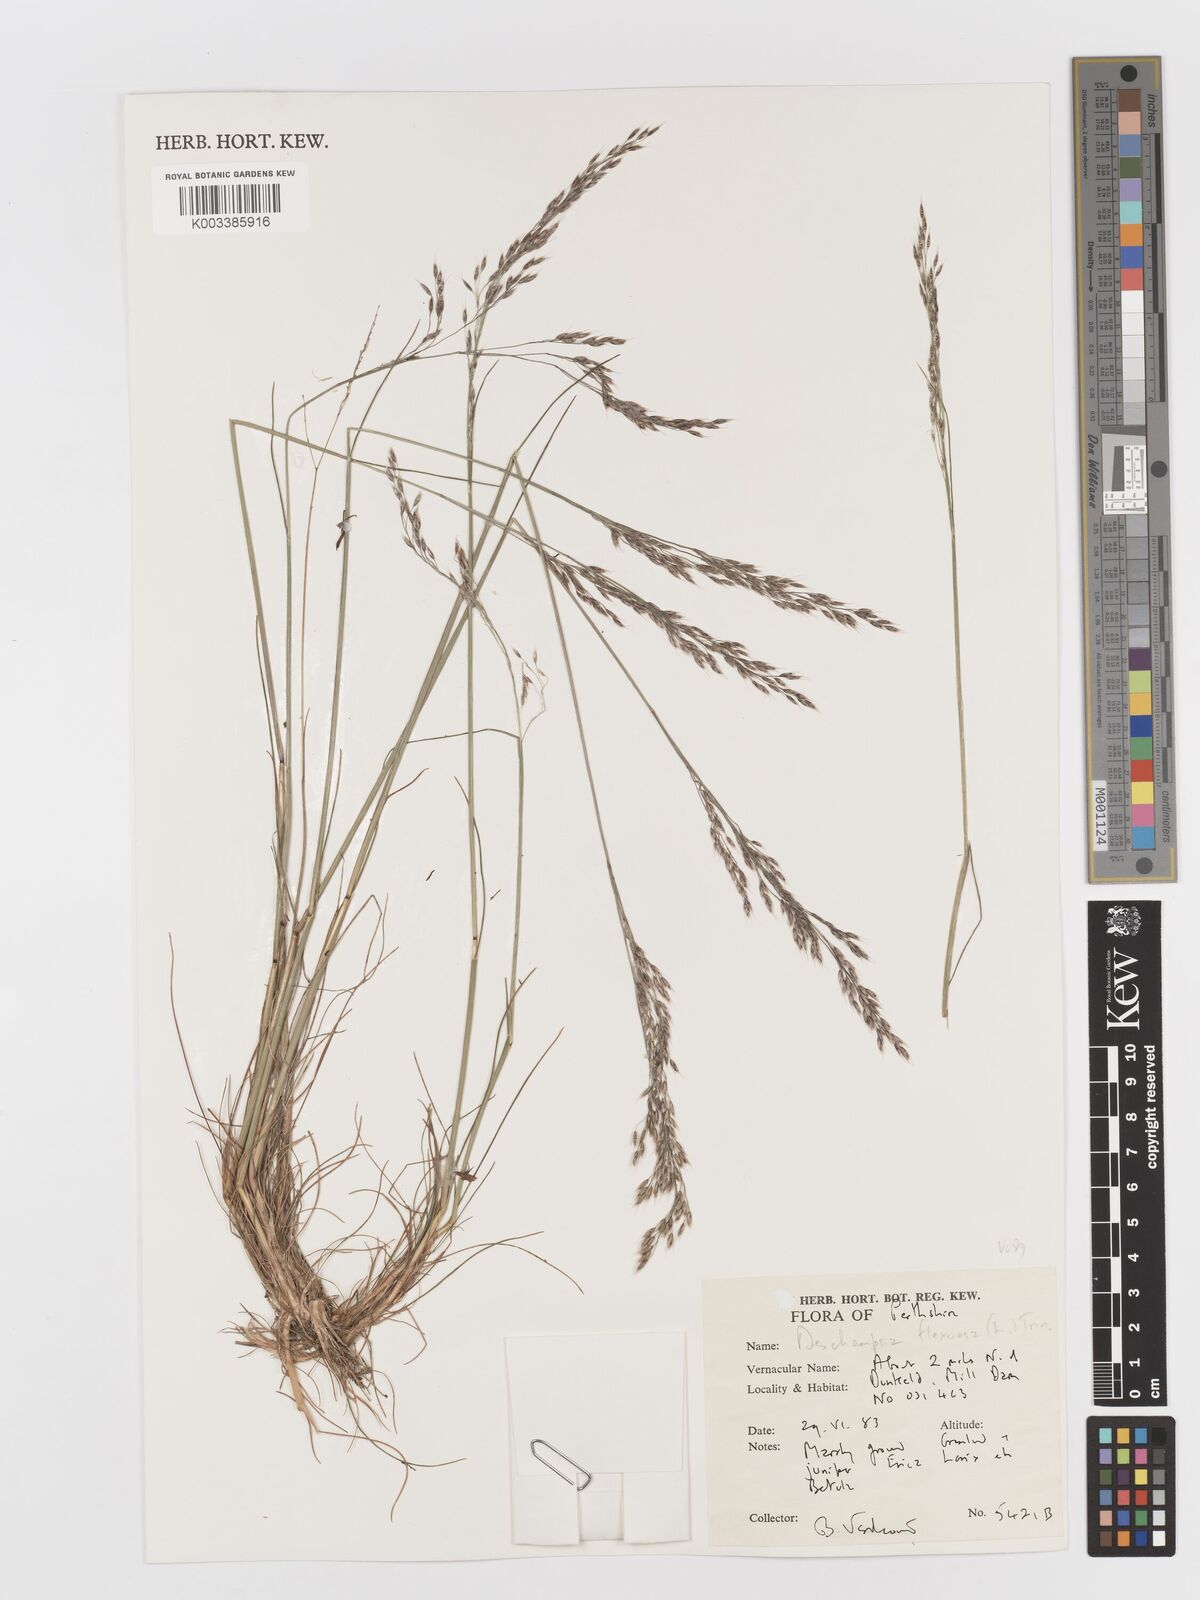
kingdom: Plantae
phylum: Tracheophyta
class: Liliopsida
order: Poales
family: Poaceae
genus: Avenella
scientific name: Avenella flexuosa
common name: Wavy hairgrass
